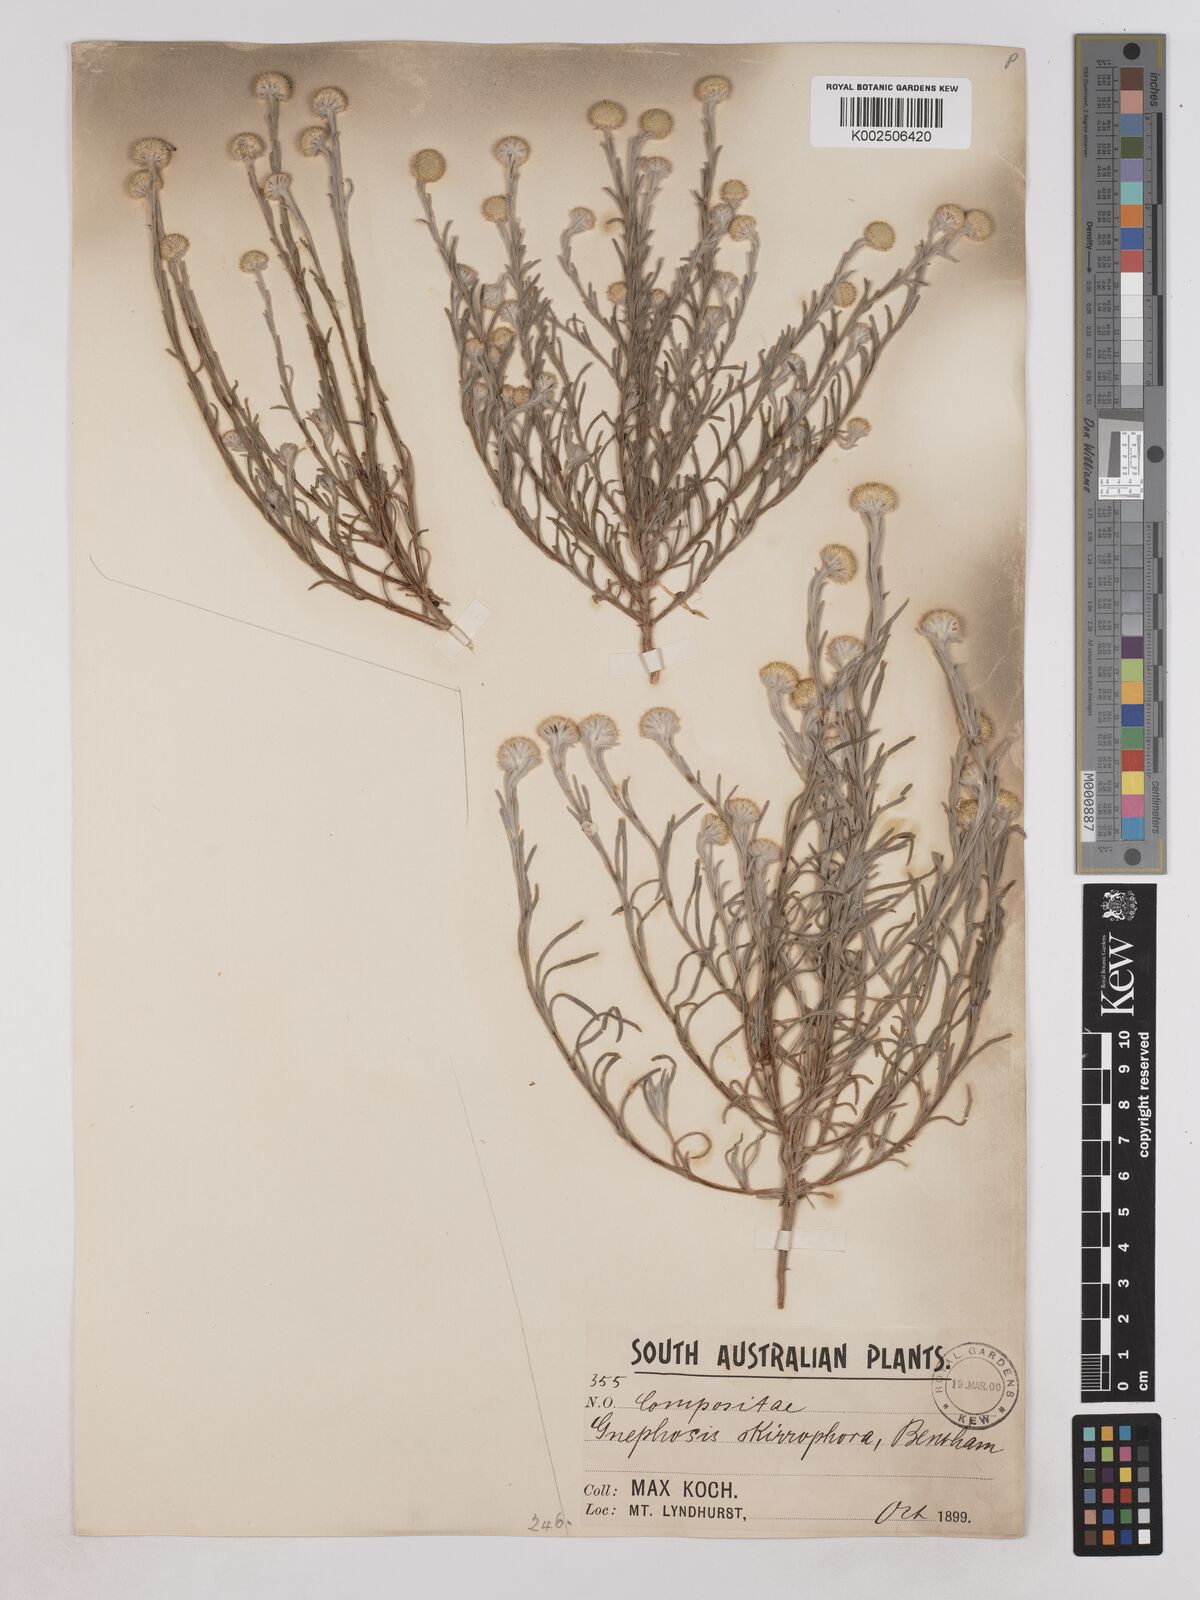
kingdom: Plantae
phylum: Tracheophyta
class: Magnoliopsida
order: Asterales
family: Asteraceae
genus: Trichanthodium
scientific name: Trichanthodium skirrophorum
